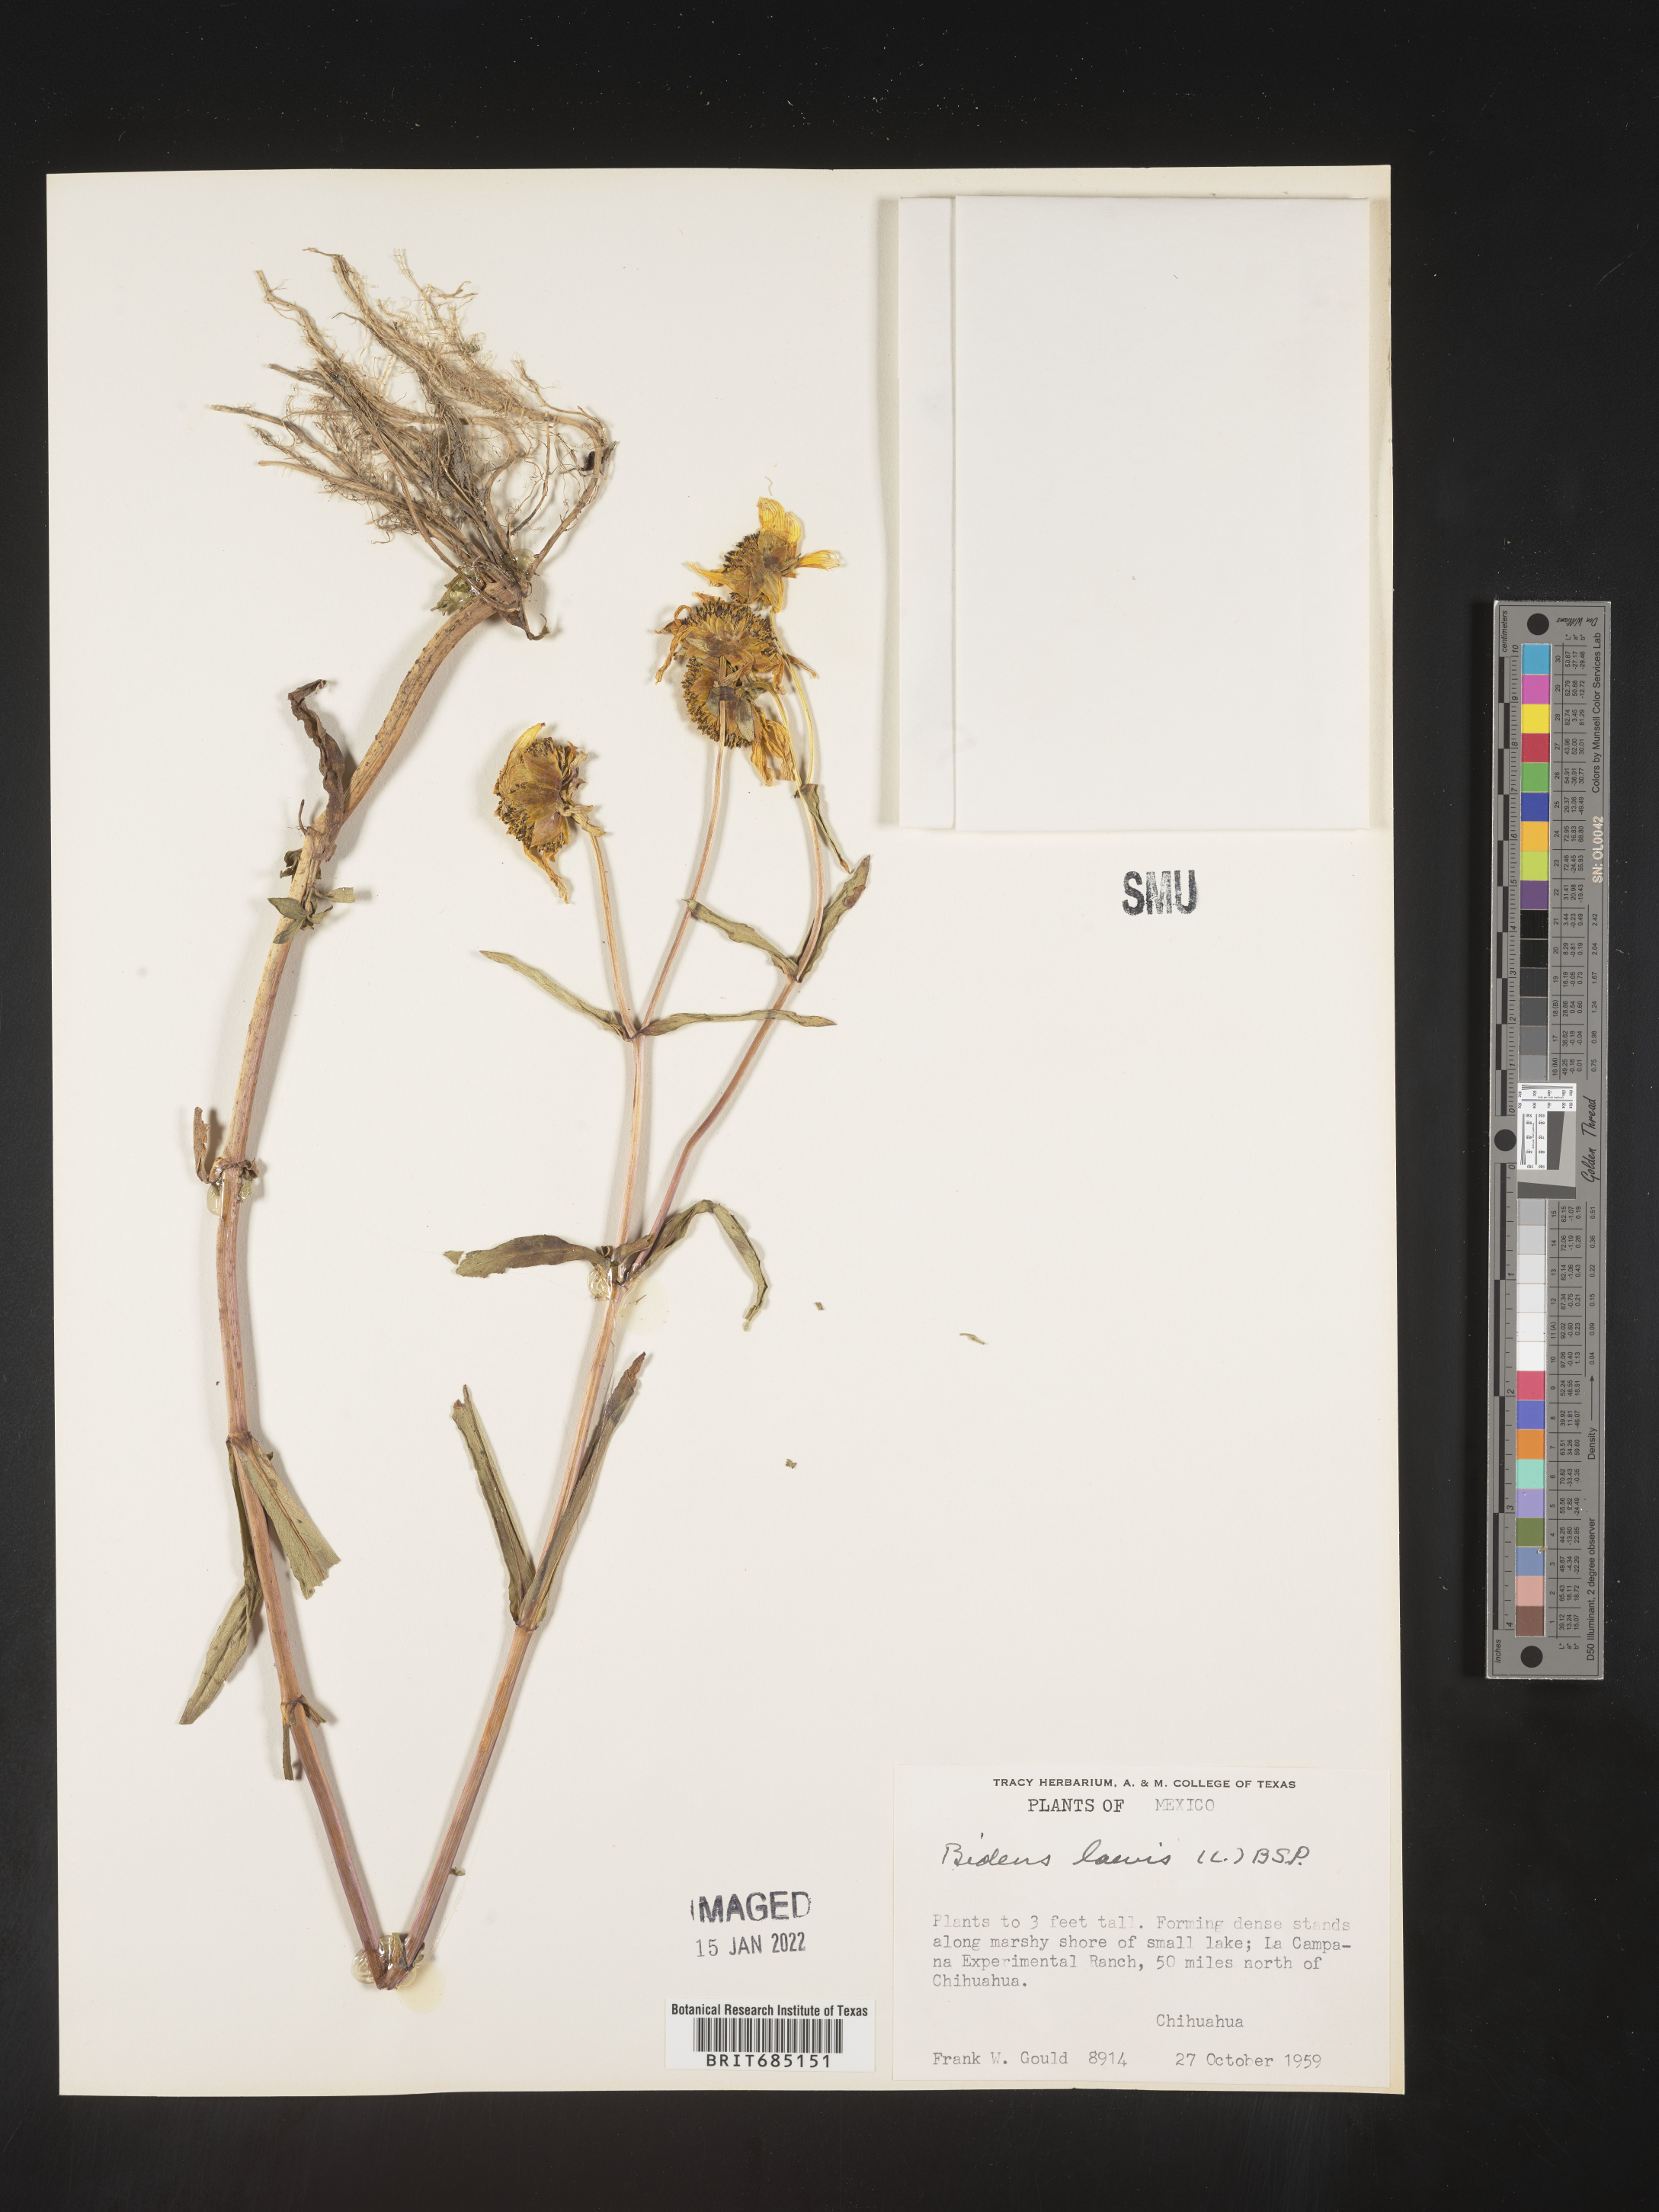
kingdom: Plantae
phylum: Tracheophyta
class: Magnoliopsida
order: Asterales
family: Asteraceae
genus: Bidens
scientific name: Bidens
